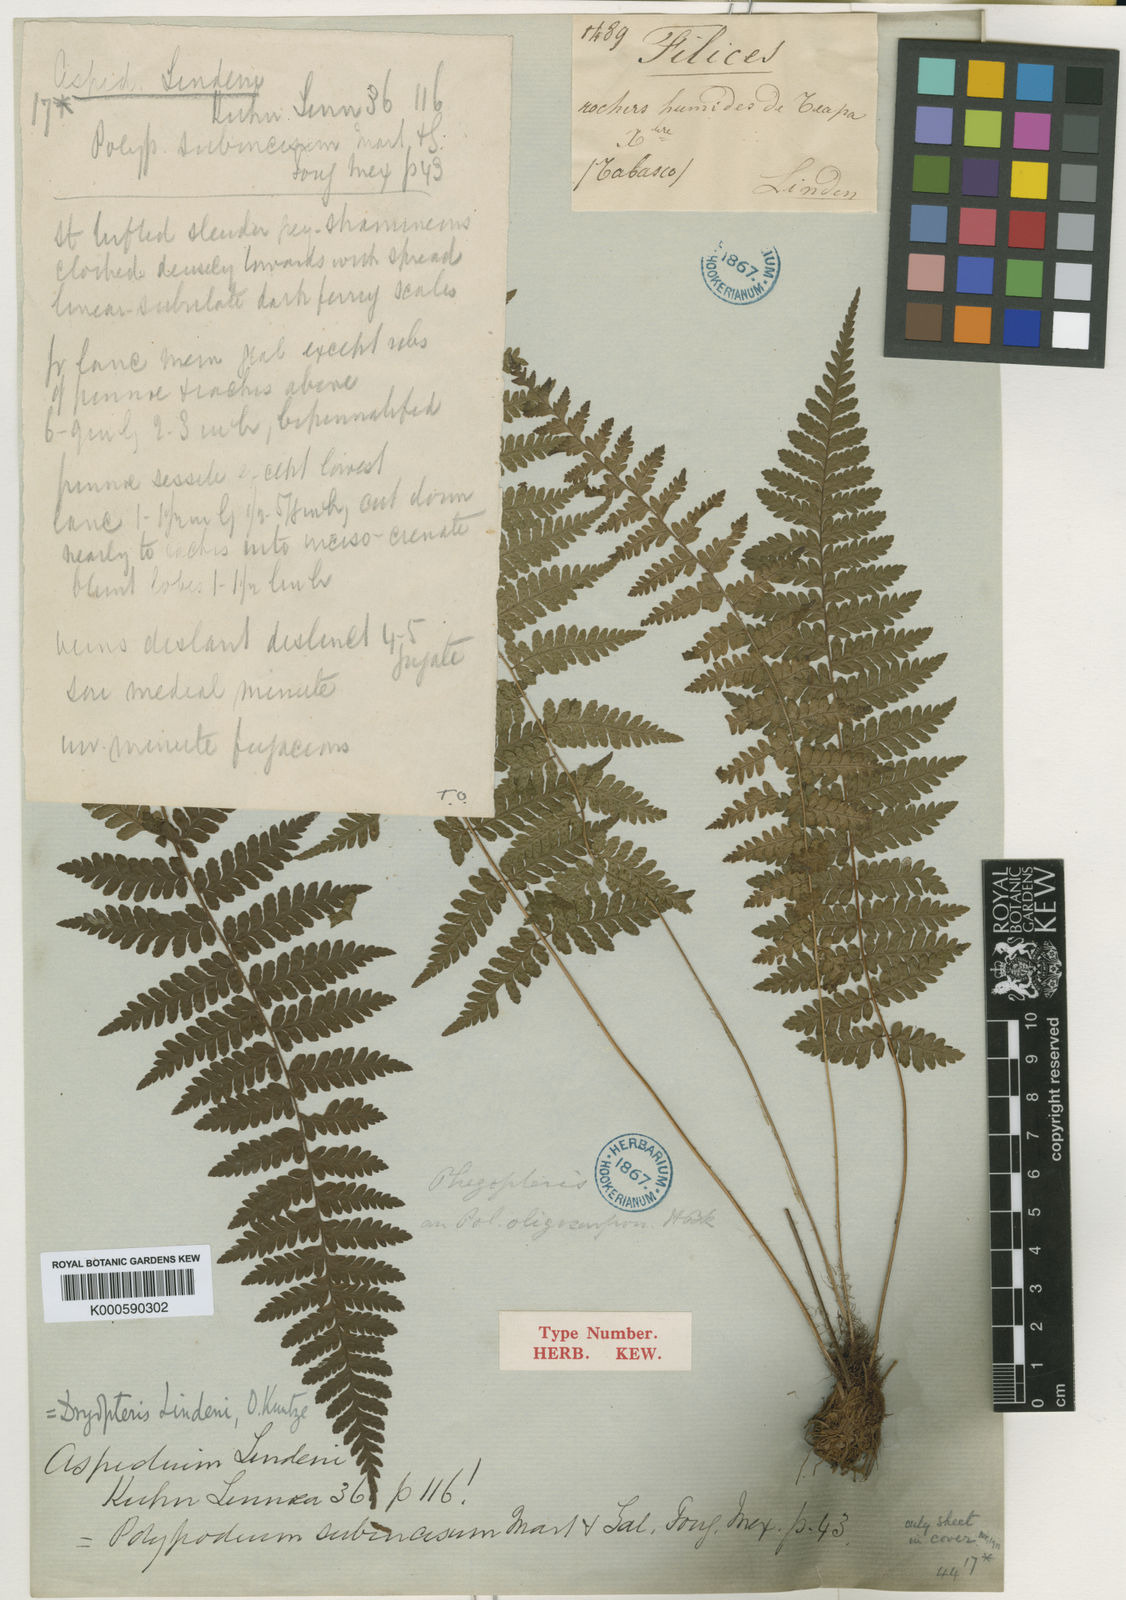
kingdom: Plantae
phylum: Tracheophyta
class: Polypodiopsida
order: Polypodiales
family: Dryopteridaceae
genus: Ctenitis
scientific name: Ctenitis salvinii
